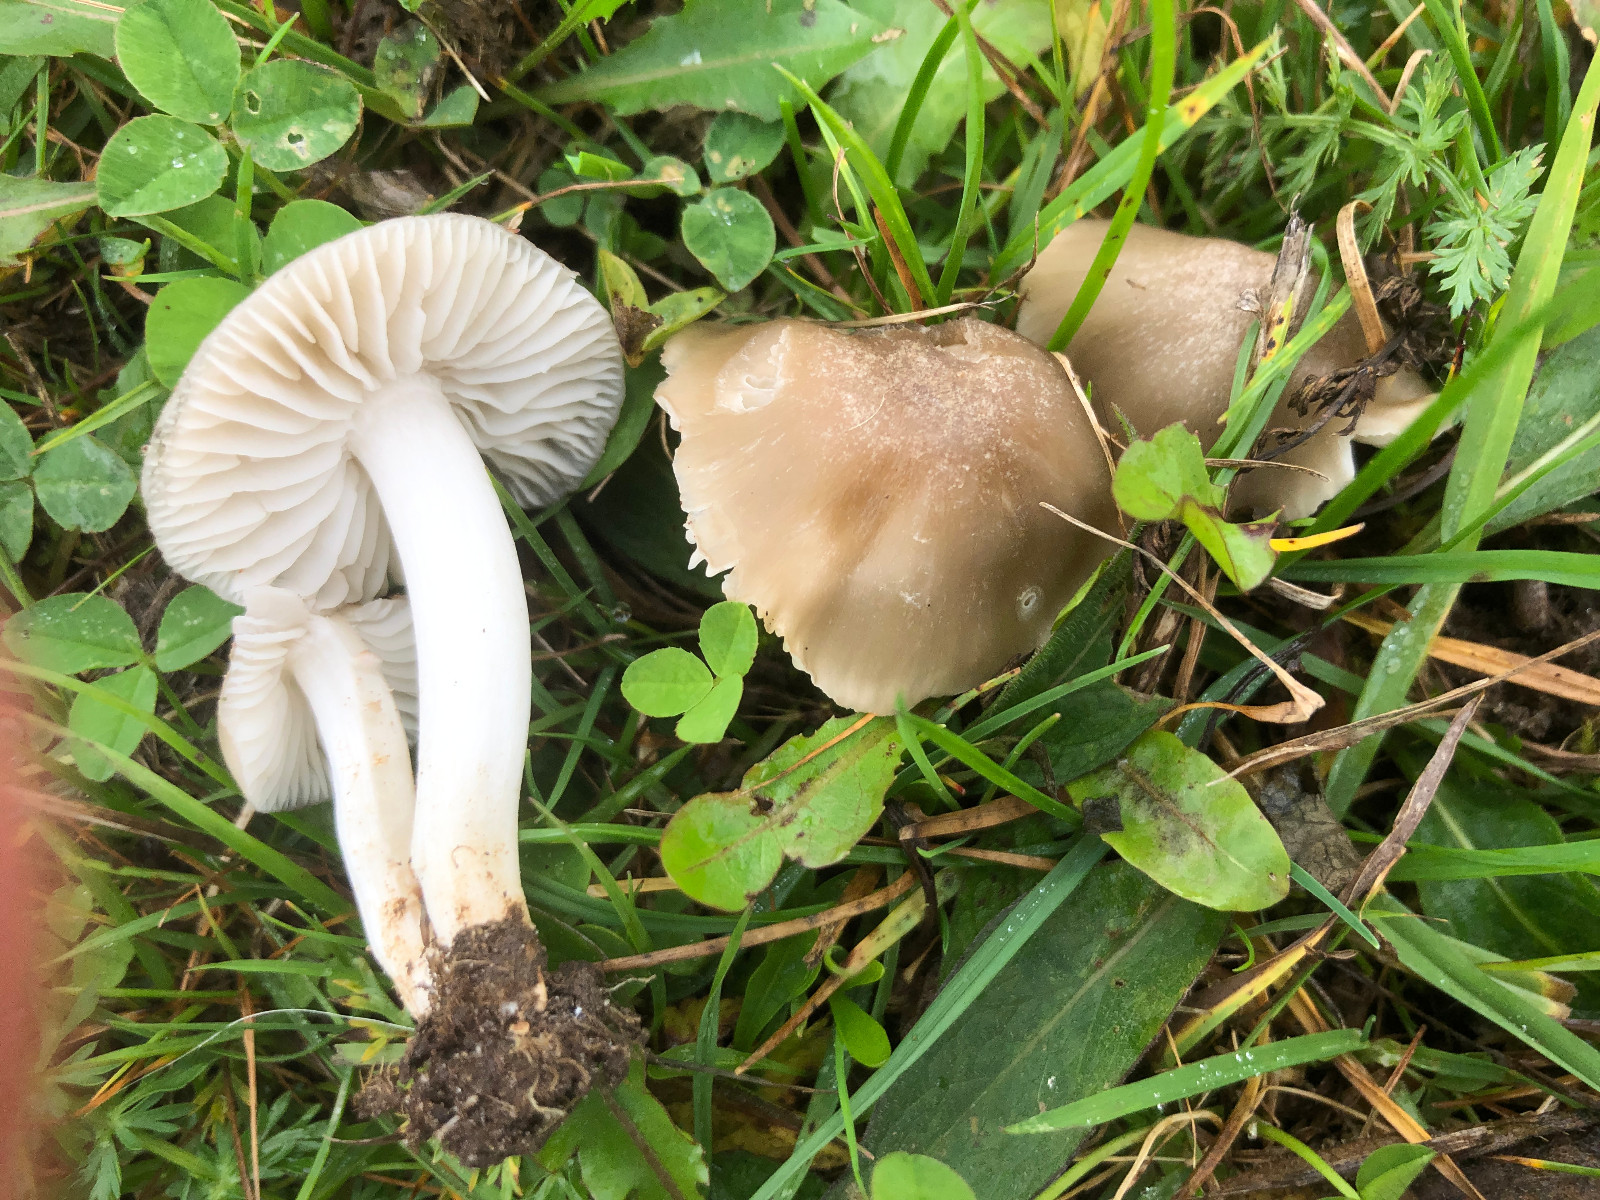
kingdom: Fungi
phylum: Basidiomycota
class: Agaricomycetes
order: Agaricales
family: Hygrophoraceae
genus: Cuphophyllus
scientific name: Cuphophyllus fornicatus
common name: gråbrun vokshat
